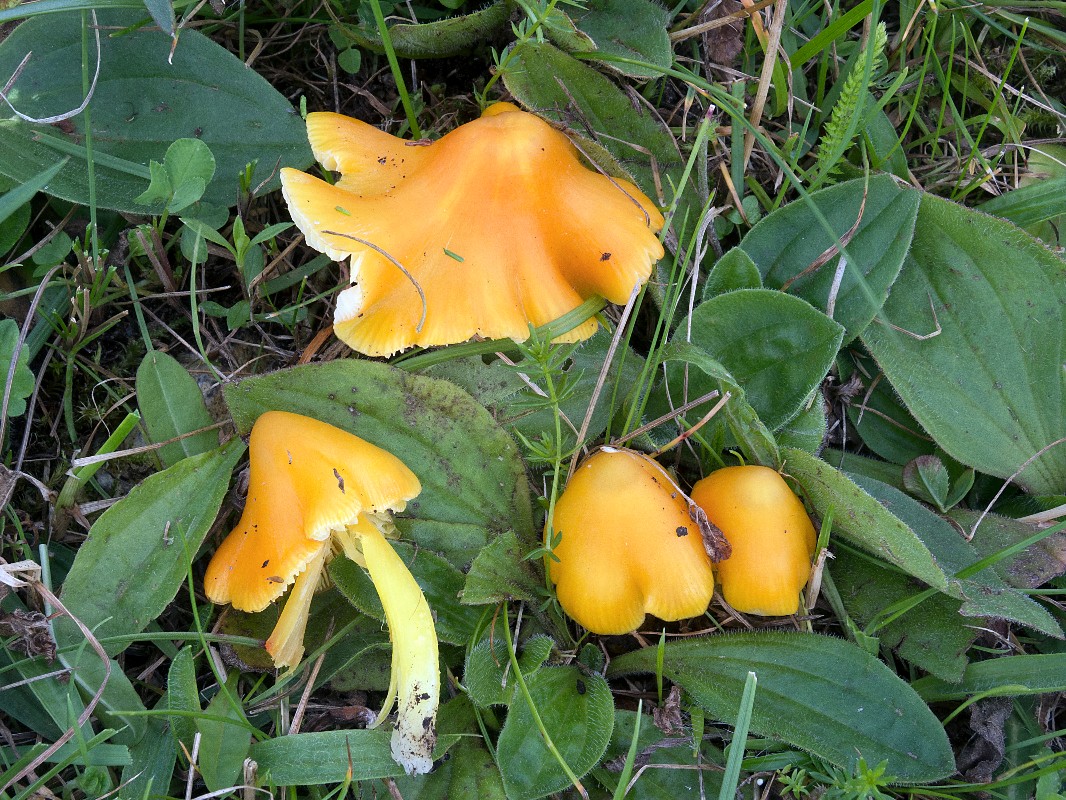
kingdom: Fungi
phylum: Basidiomycota
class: Agaricomycetes
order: Agaricales
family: Hygrophoraceae
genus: Hygrocybe
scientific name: Hygrocybe acutoconica
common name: spidspuklet vokshat
